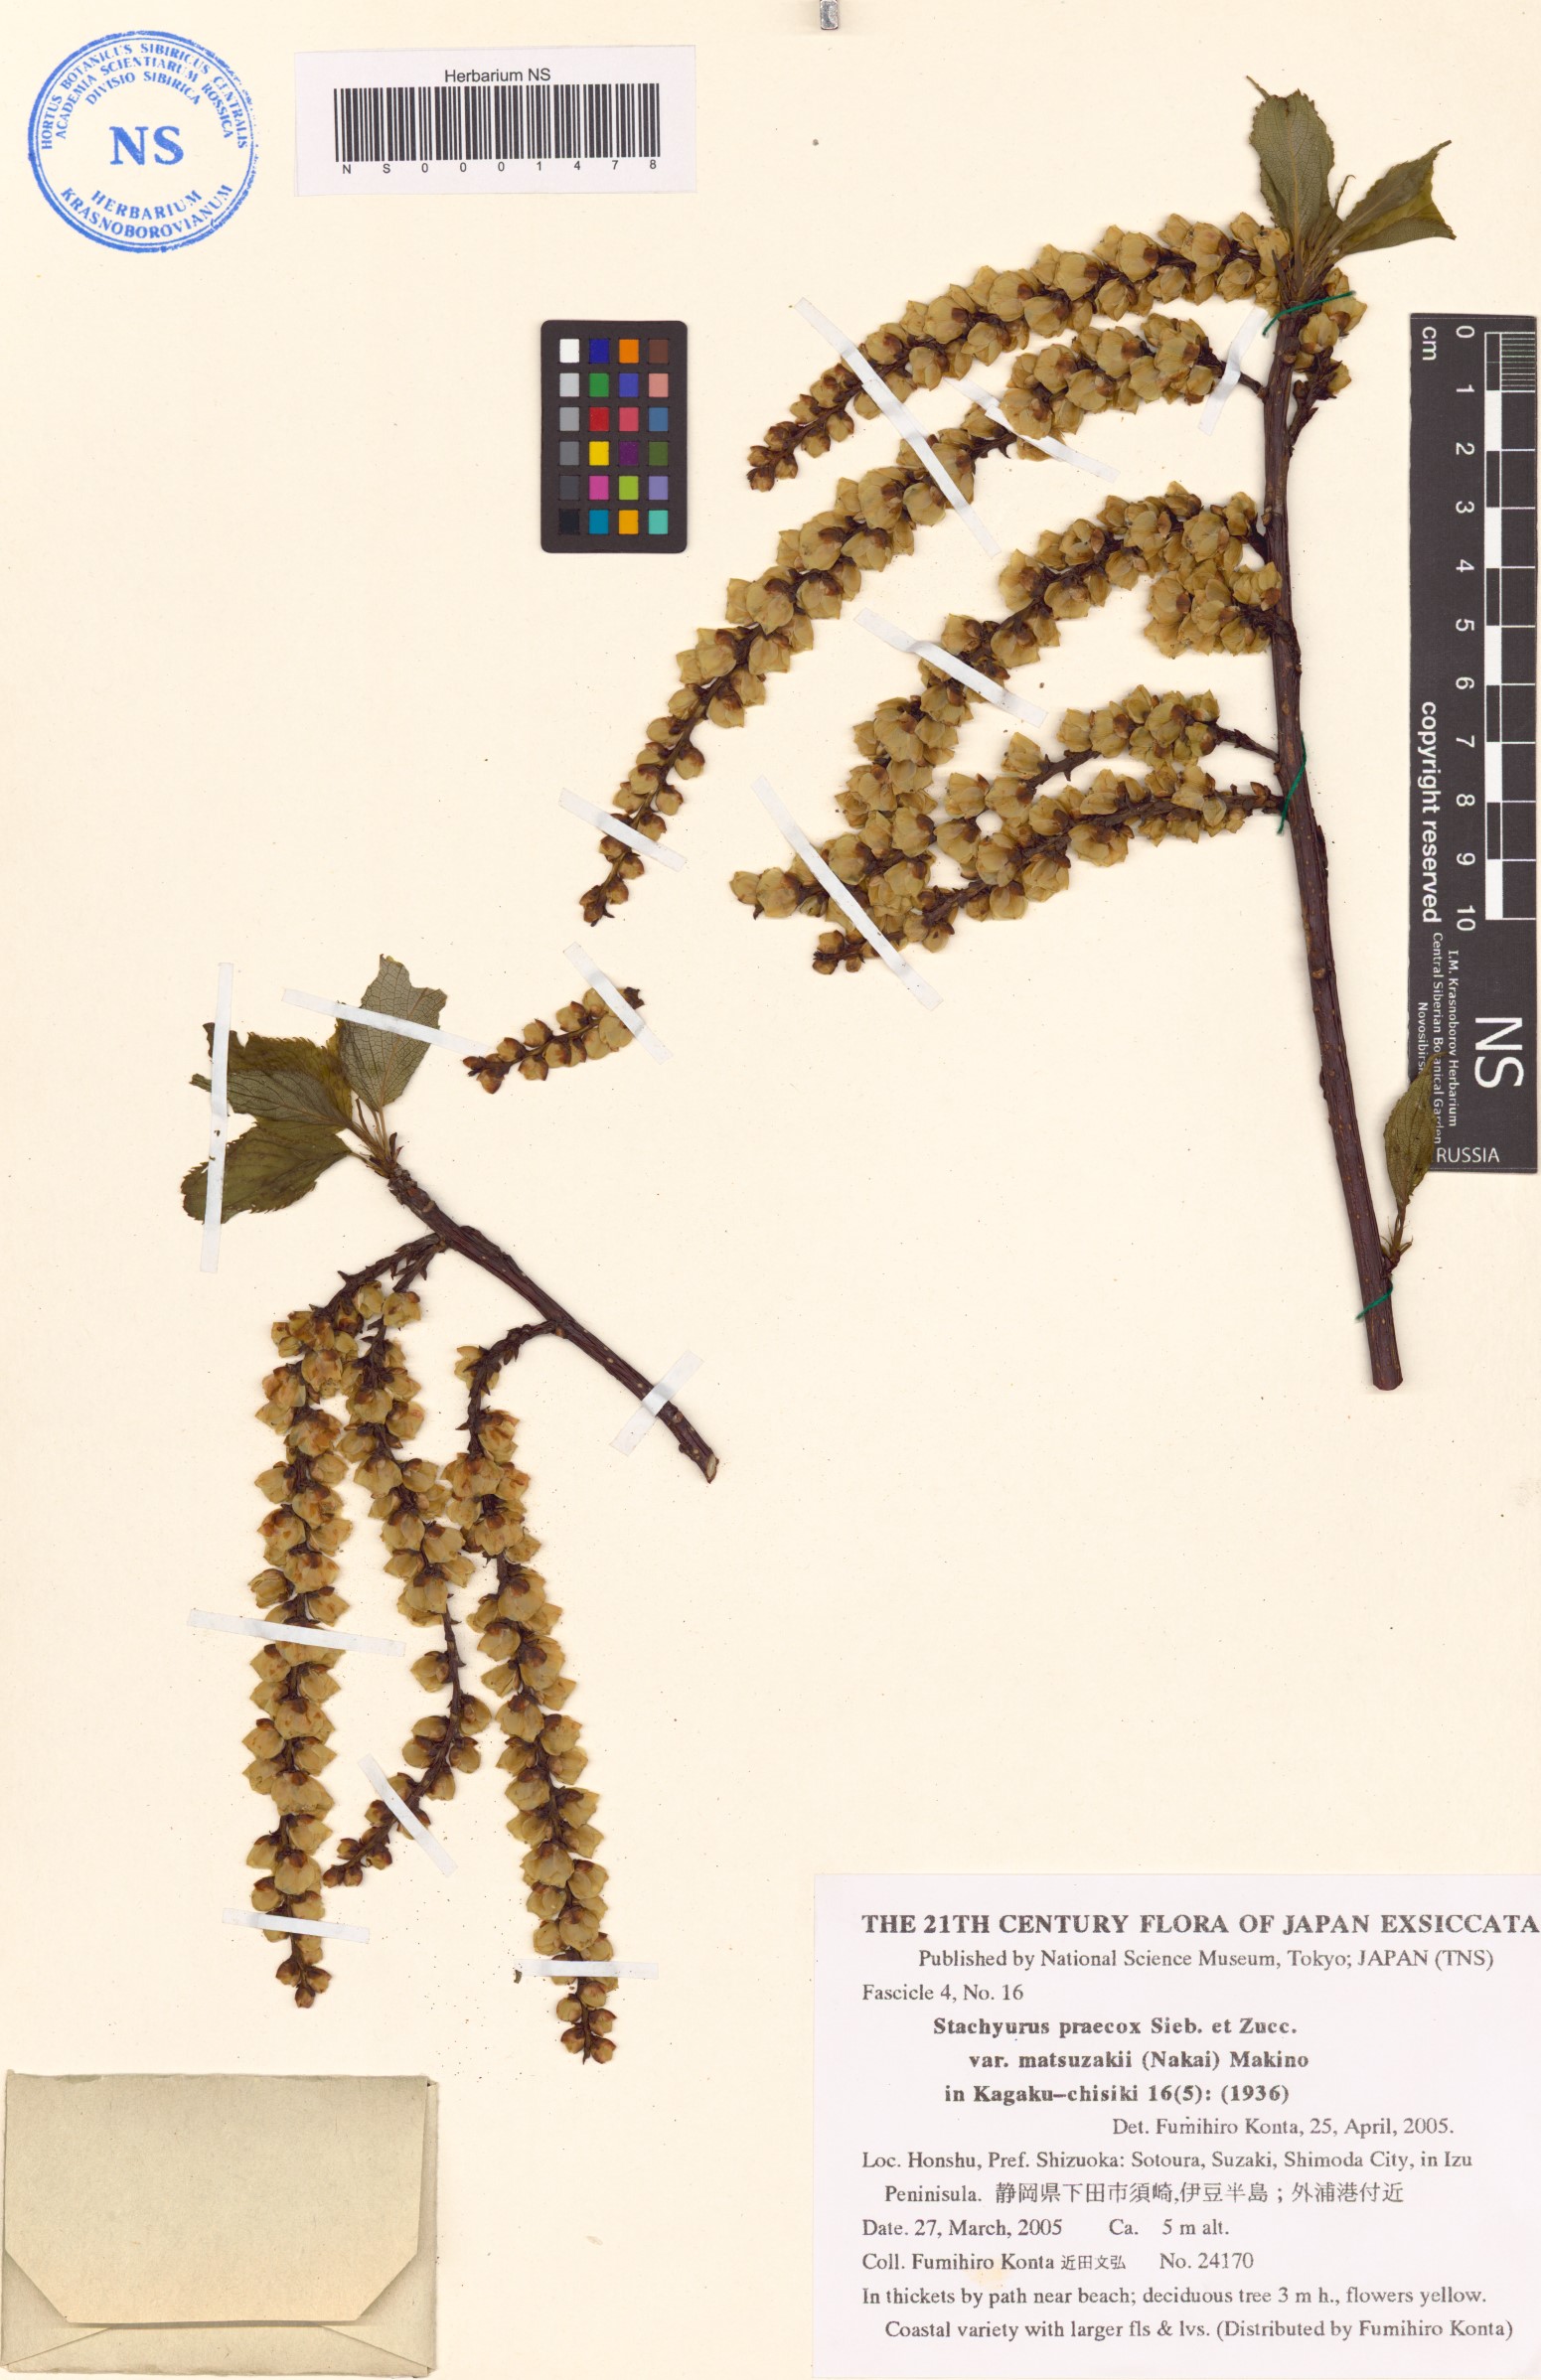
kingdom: Plantae
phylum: Tracheophyta
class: Magnoliopsida
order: Crossosomatales
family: Stachyuraceae
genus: Stachyurus
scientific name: Stachyurus praecox
